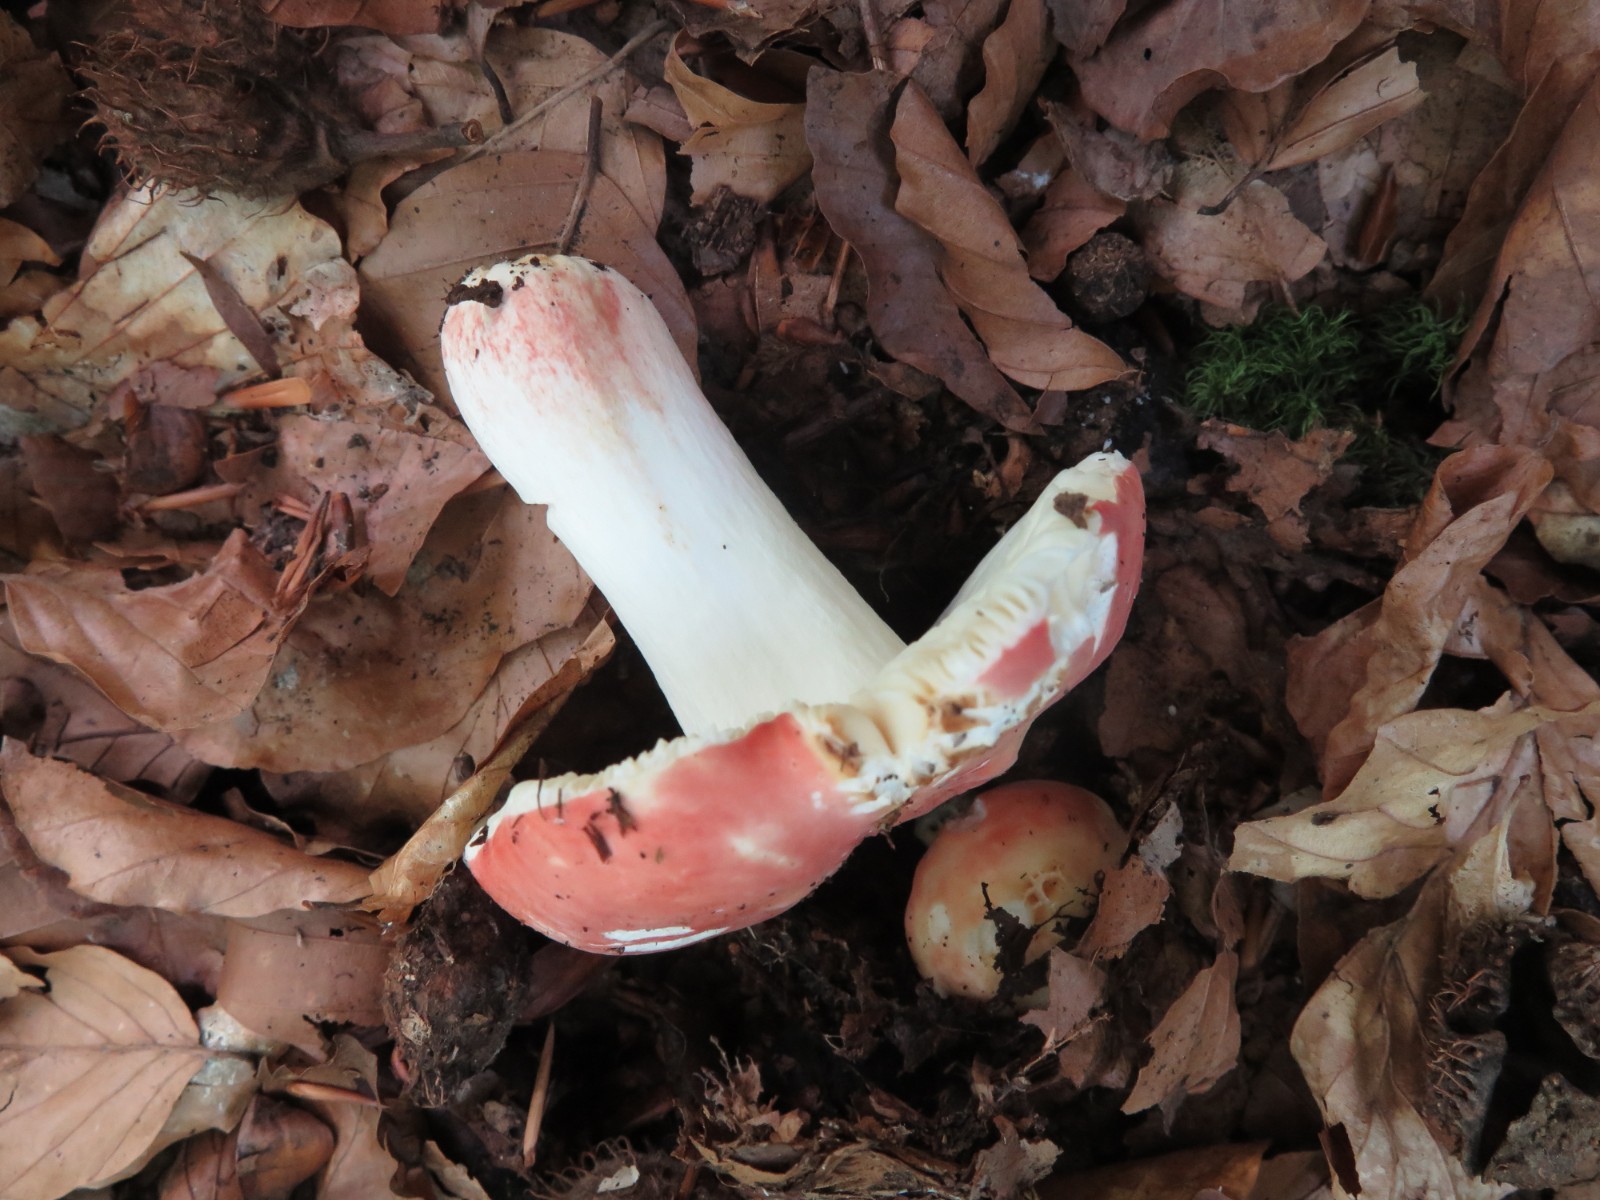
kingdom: Fungi
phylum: Basidiomycota
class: Agaricomycetes
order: Russulales
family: Russulaceae
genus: Russula
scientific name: Russula rosea
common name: fastkødet skørhat
